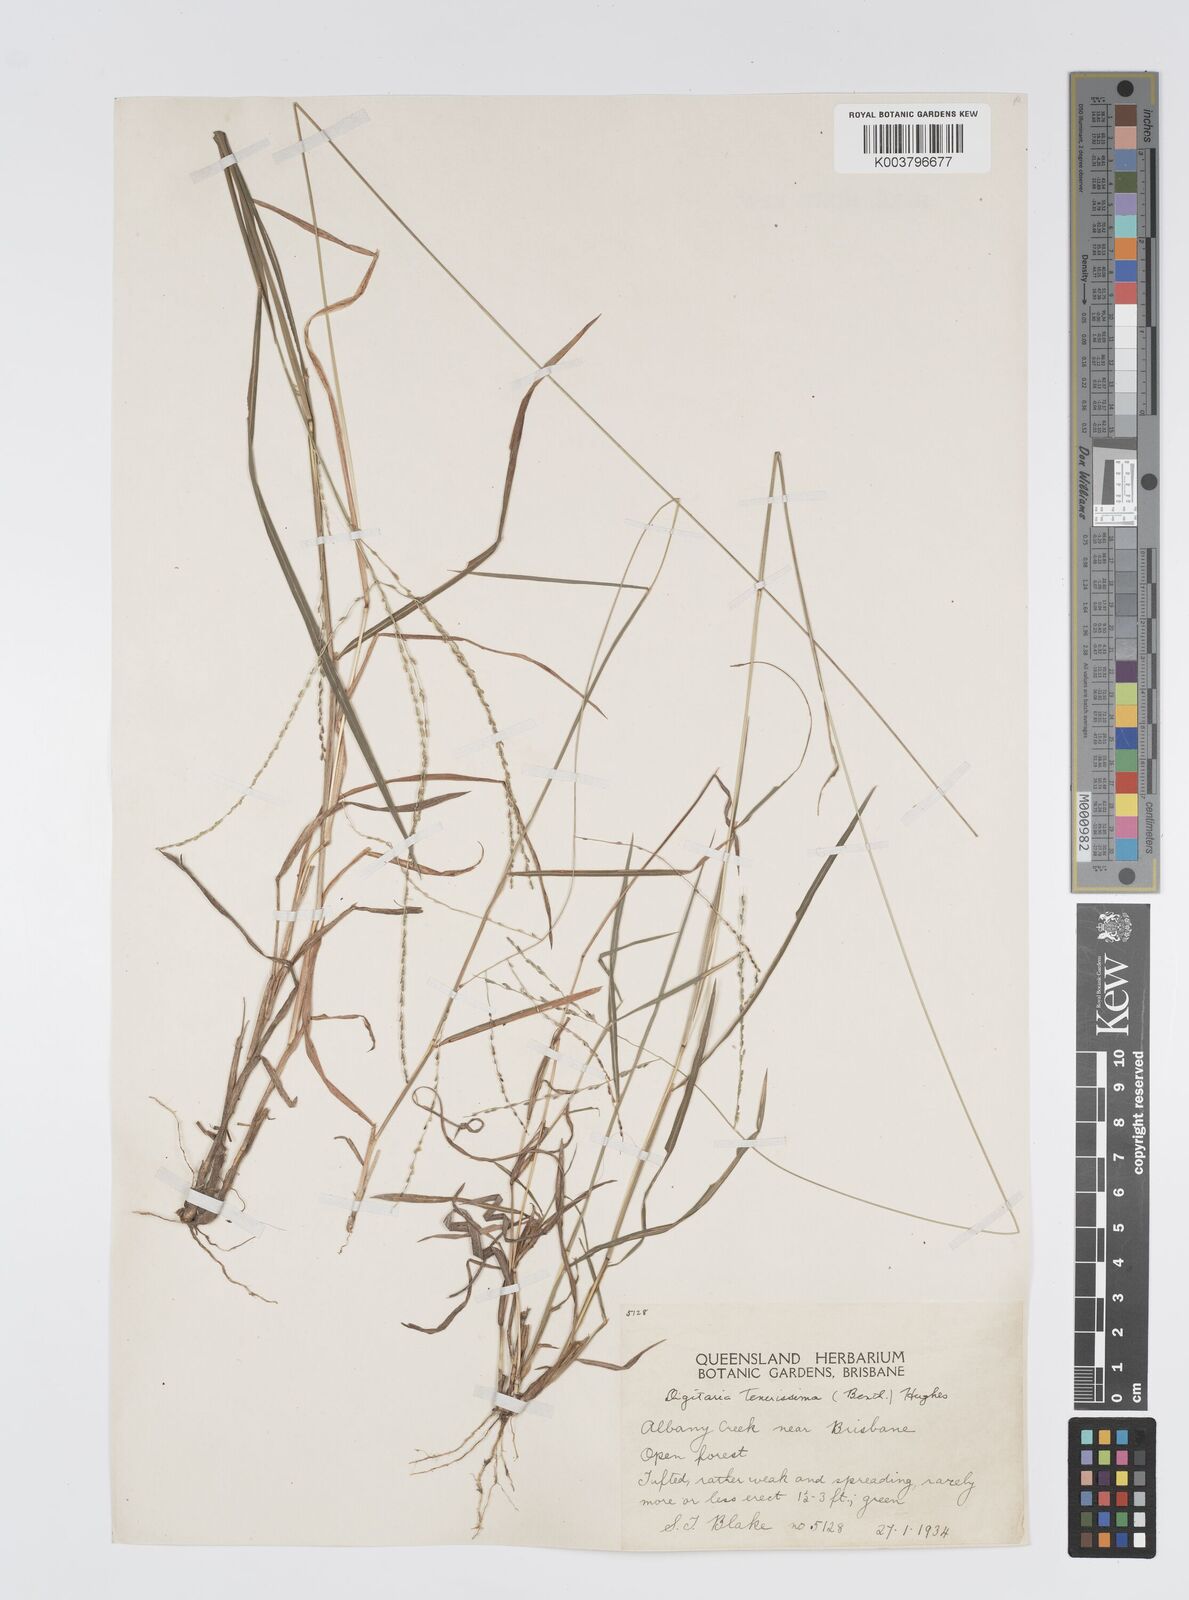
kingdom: Plantae
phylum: Tracheophyta
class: Liliopsida
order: Poales
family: Poaceae
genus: Digitaria
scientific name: Digitaria ramularis
